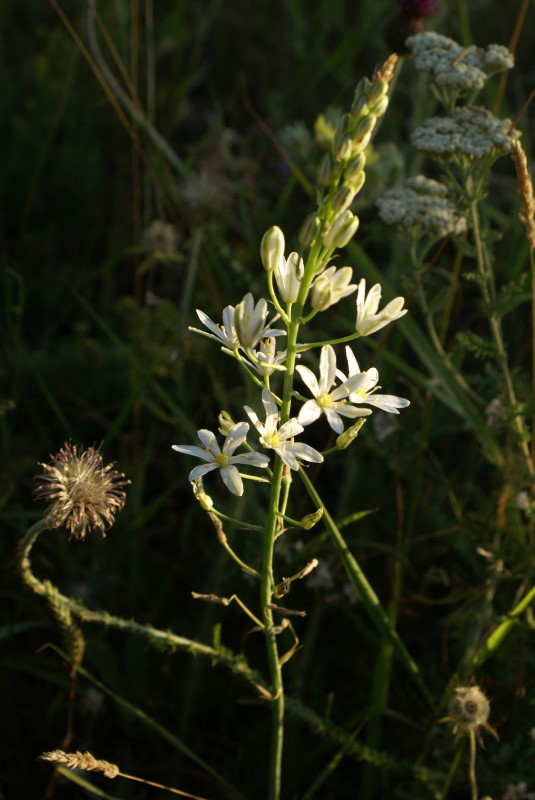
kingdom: Plantae
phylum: Tracheophyta
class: Liliopsida
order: Asparagales
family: Asparagaceae
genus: Ornithogalum
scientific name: Ornithogalum ponticum
